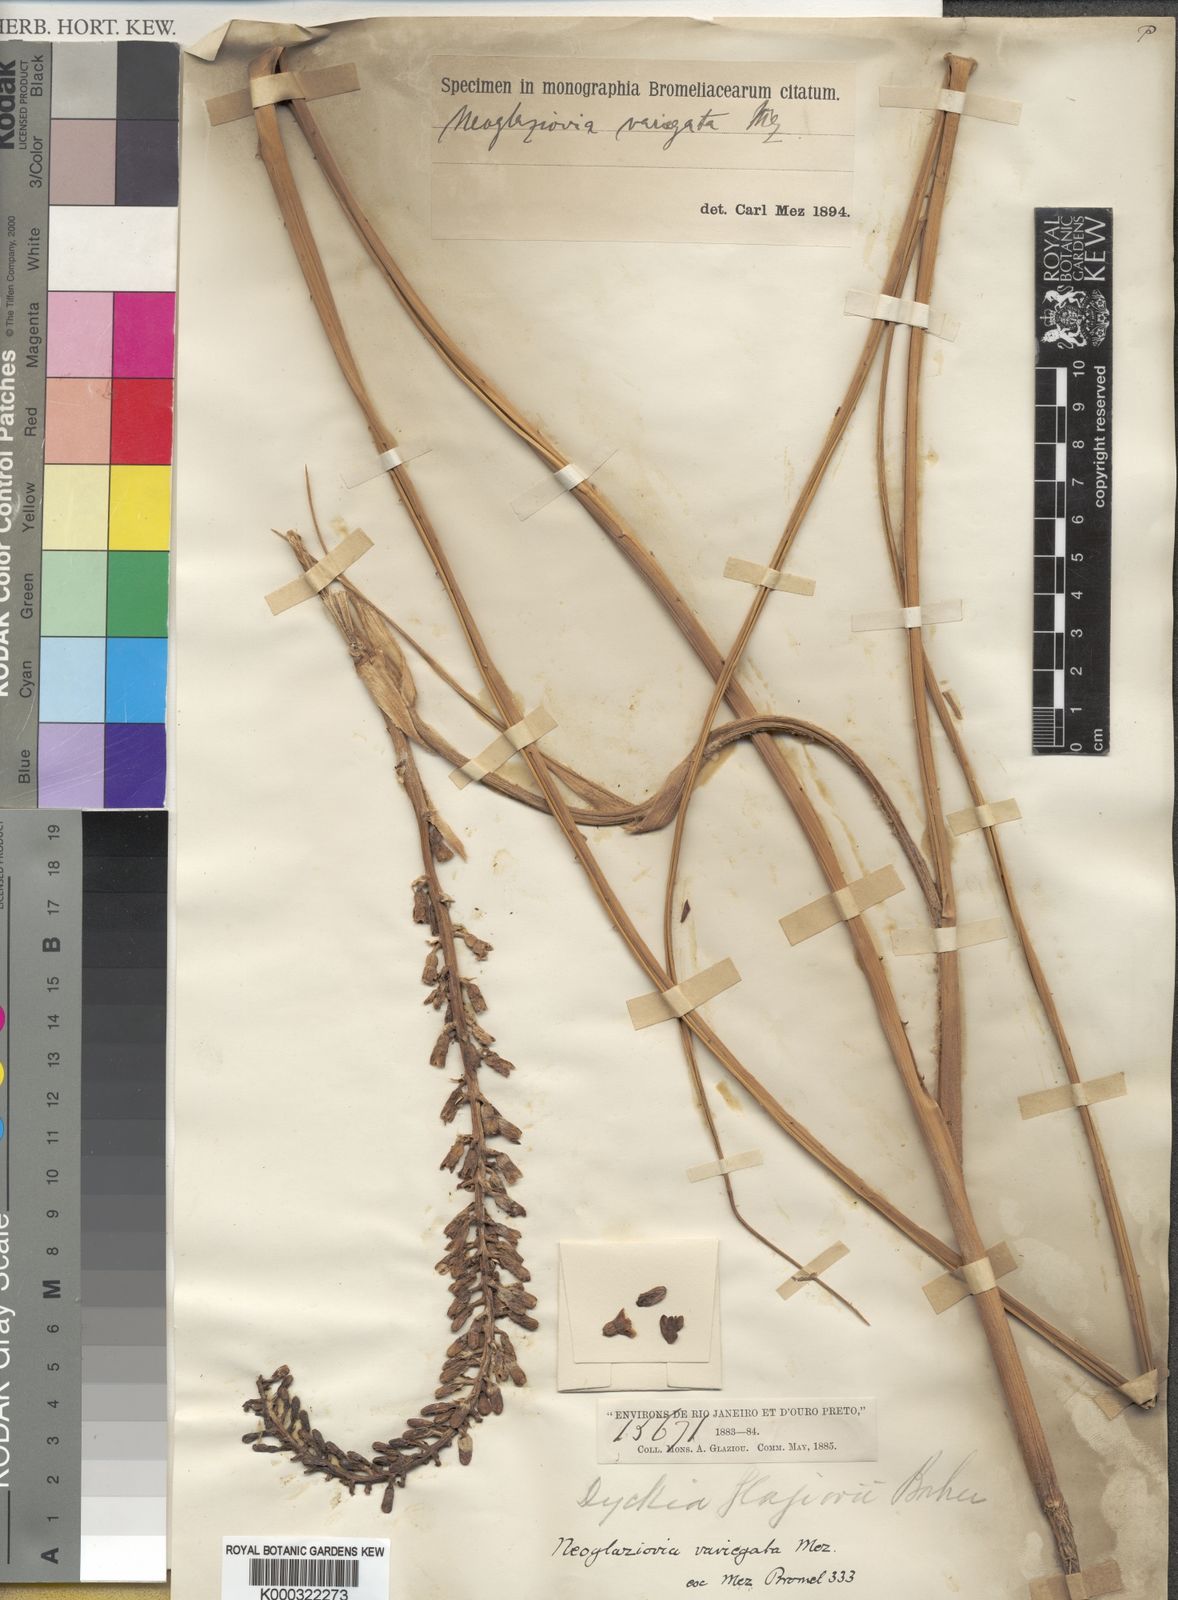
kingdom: Plantae
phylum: Tracheophyta
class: Liliopsida
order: Poales
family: Bromeliaceae
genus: Neoglaziovia
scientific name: Neoglaziovia variegata
